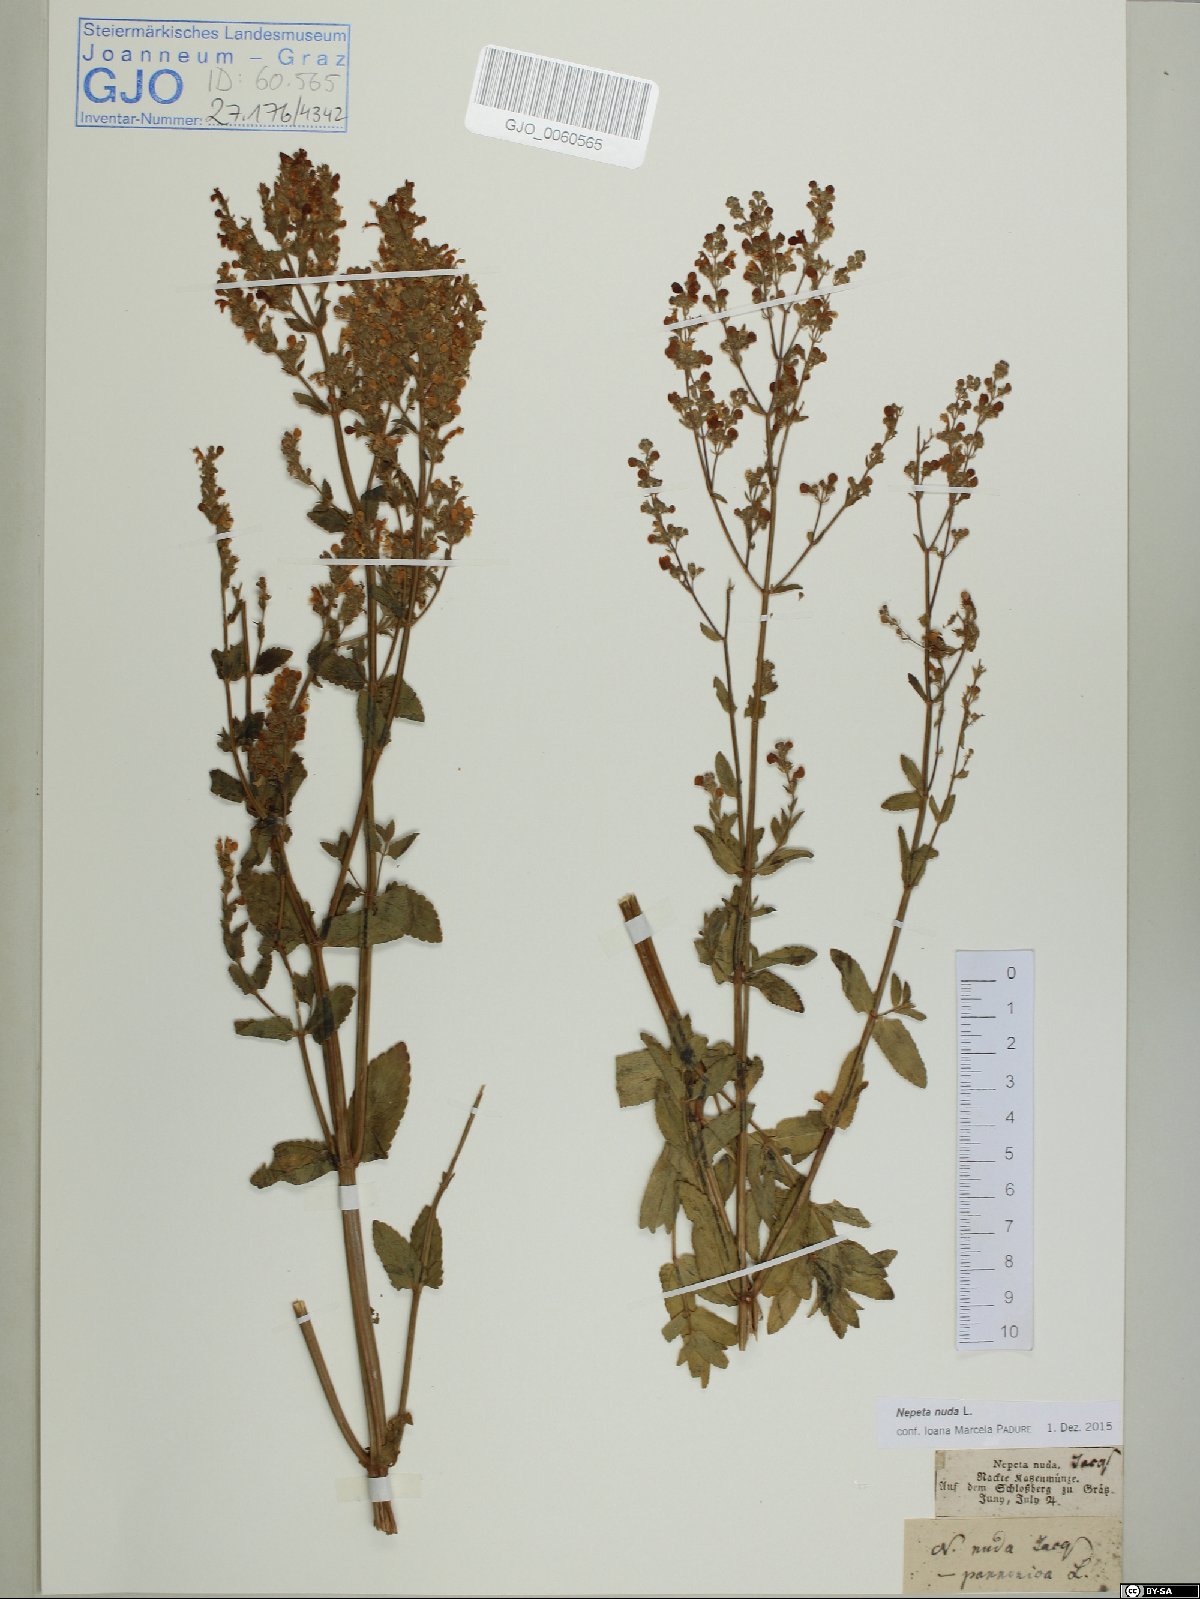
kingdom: Plantae
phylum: Tracheophyta
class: Magnoliopsida
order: Lamiales
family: Lamiaceae
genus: Nepeta
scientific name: Nepeta nuda
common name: Hairless catmint
